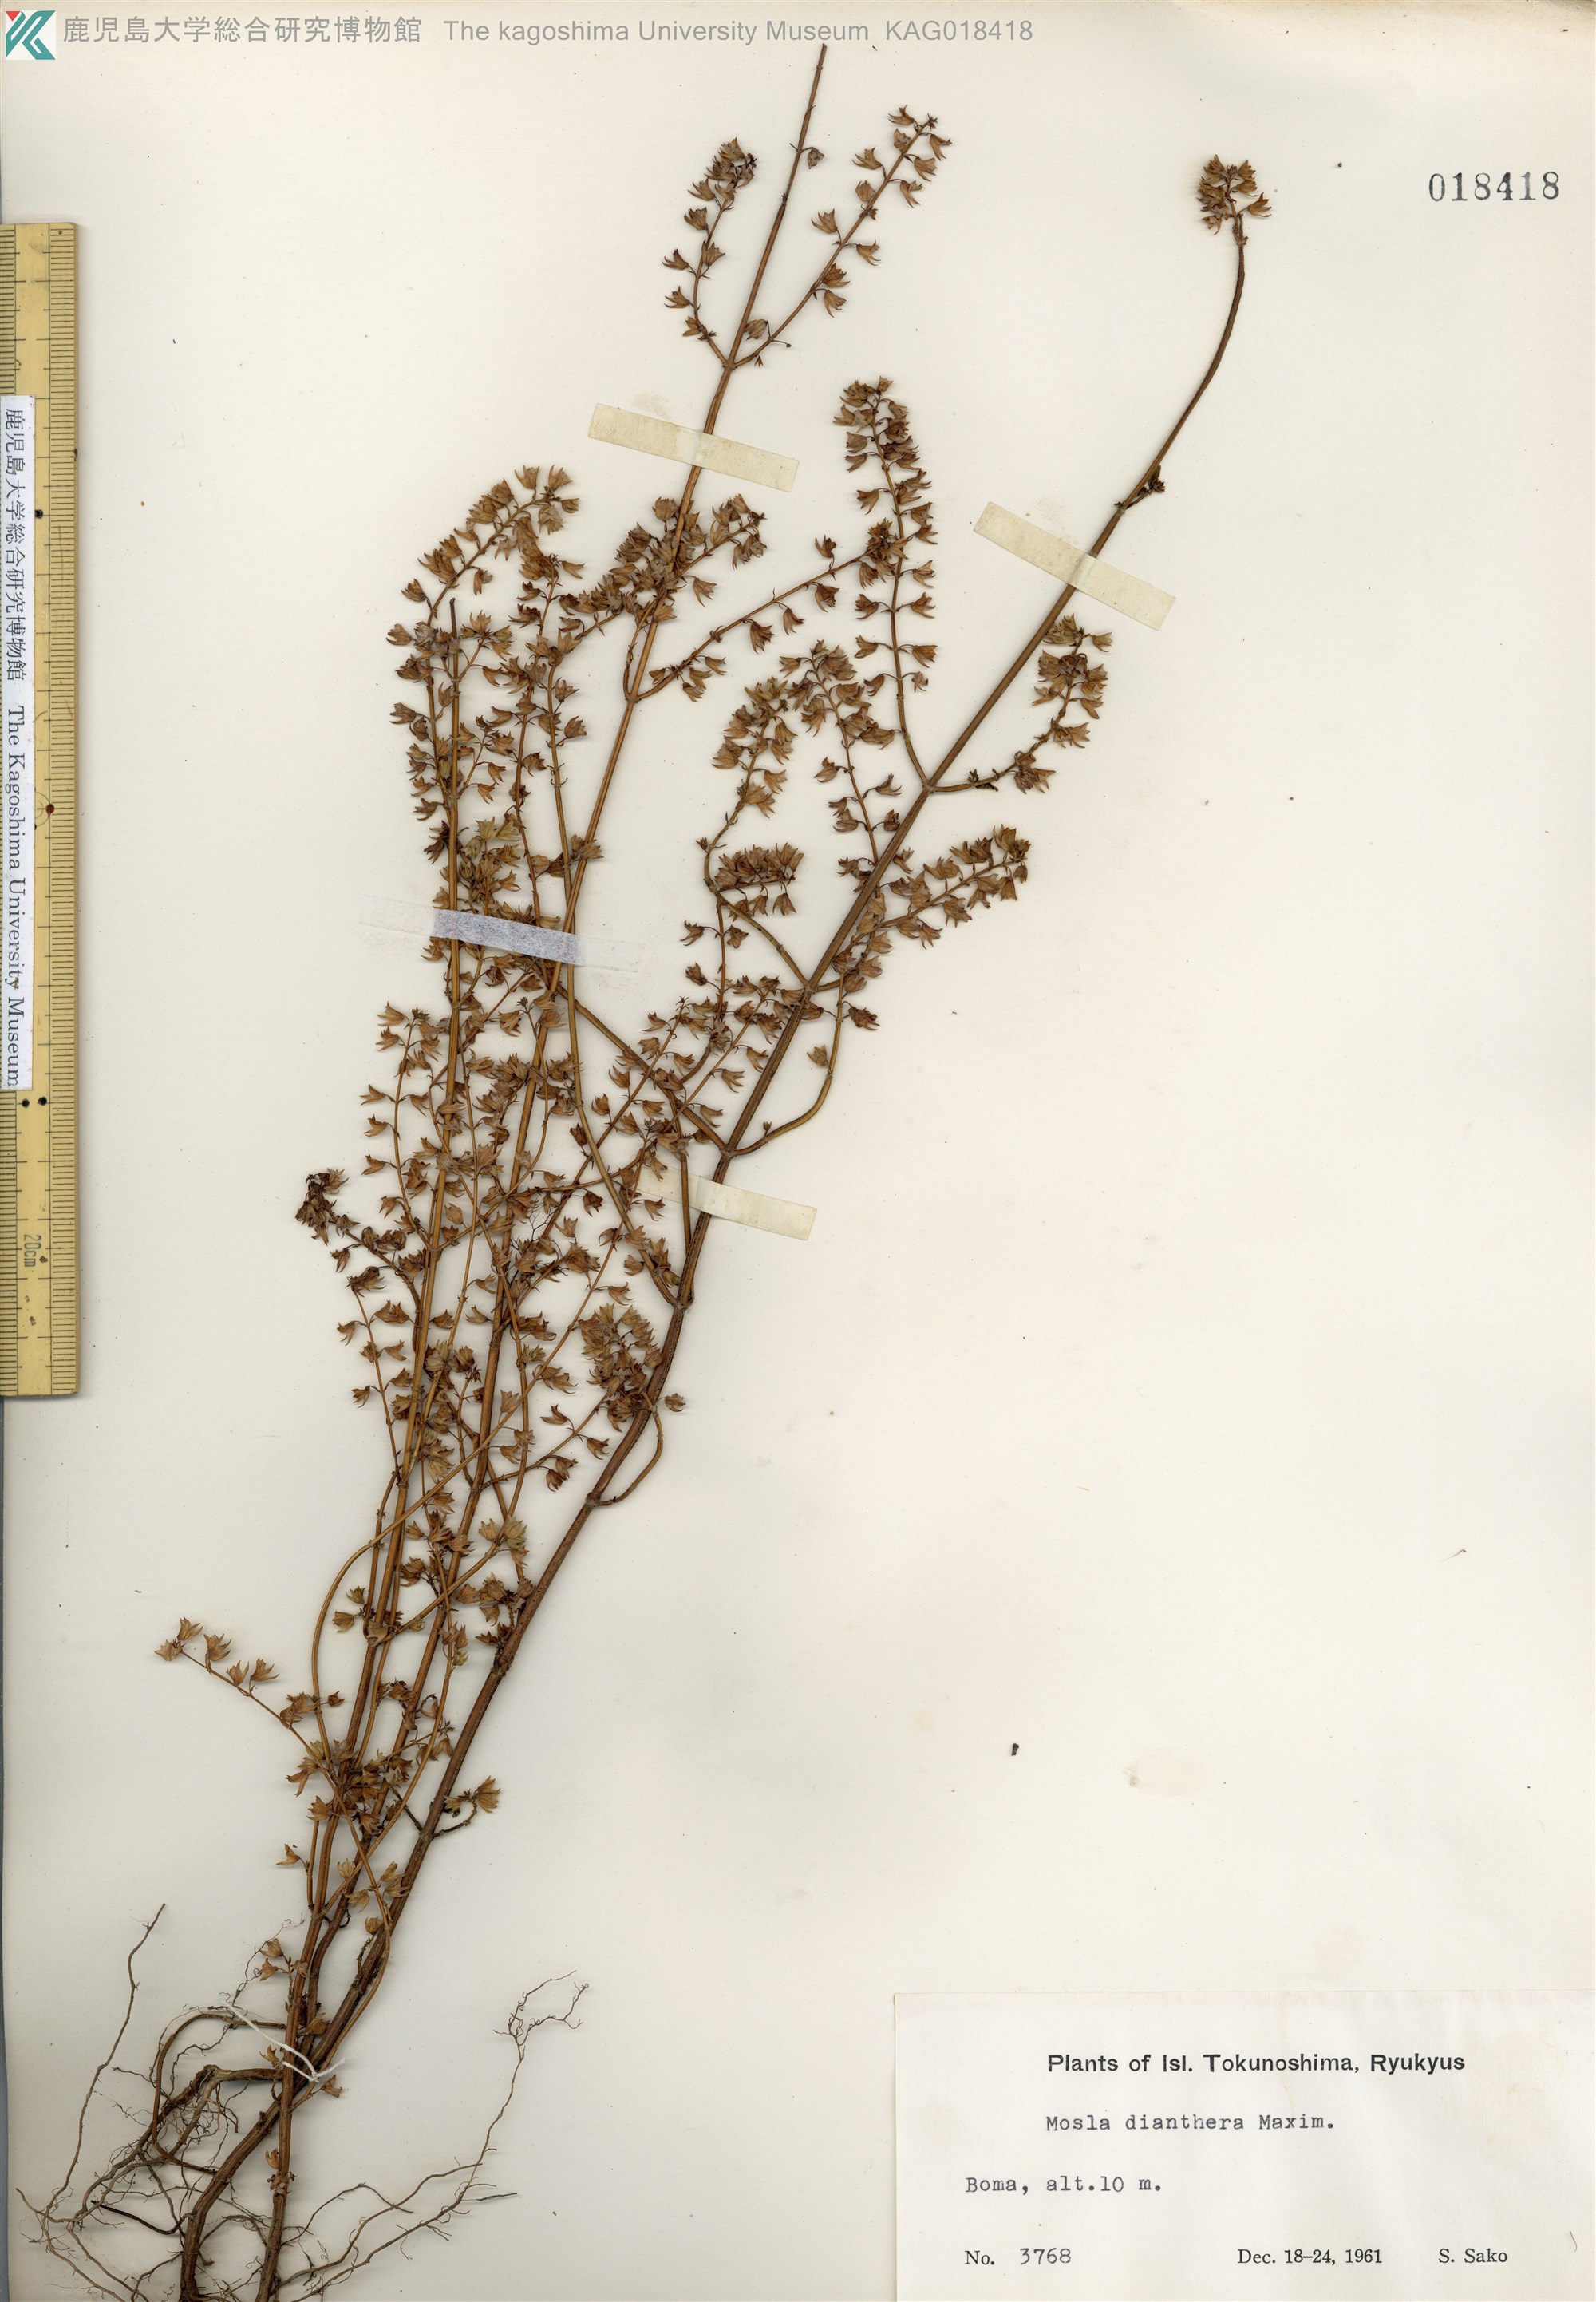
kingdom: Plantae
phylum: Tracheophyta
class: Magnoliopsida
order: Lamiales
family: Lamiaceae
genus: Mosla
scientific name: Mosla dianthera
